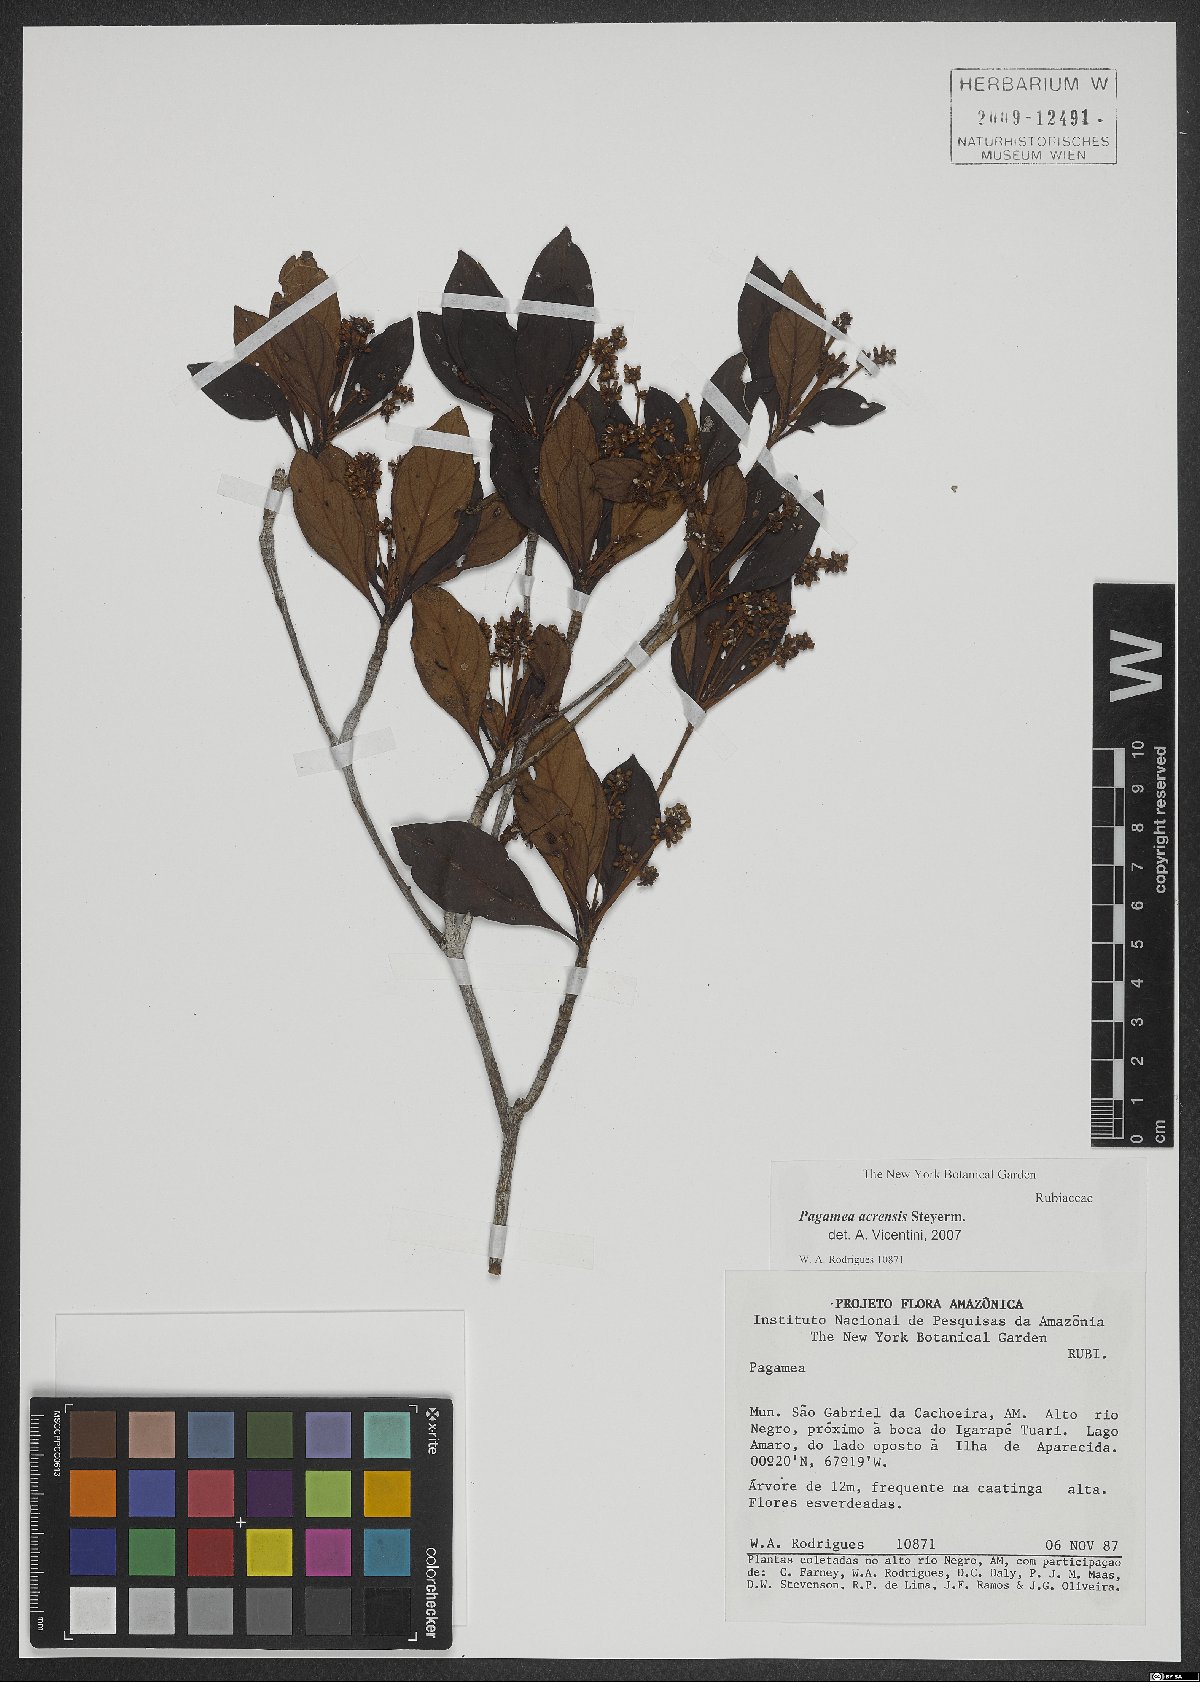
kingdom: Plantae
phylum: Tracheophyta
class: Magnoliopsida
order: Gentianales
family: Rubiaceae
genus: Pagamea
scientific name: Pagamea acrensis
